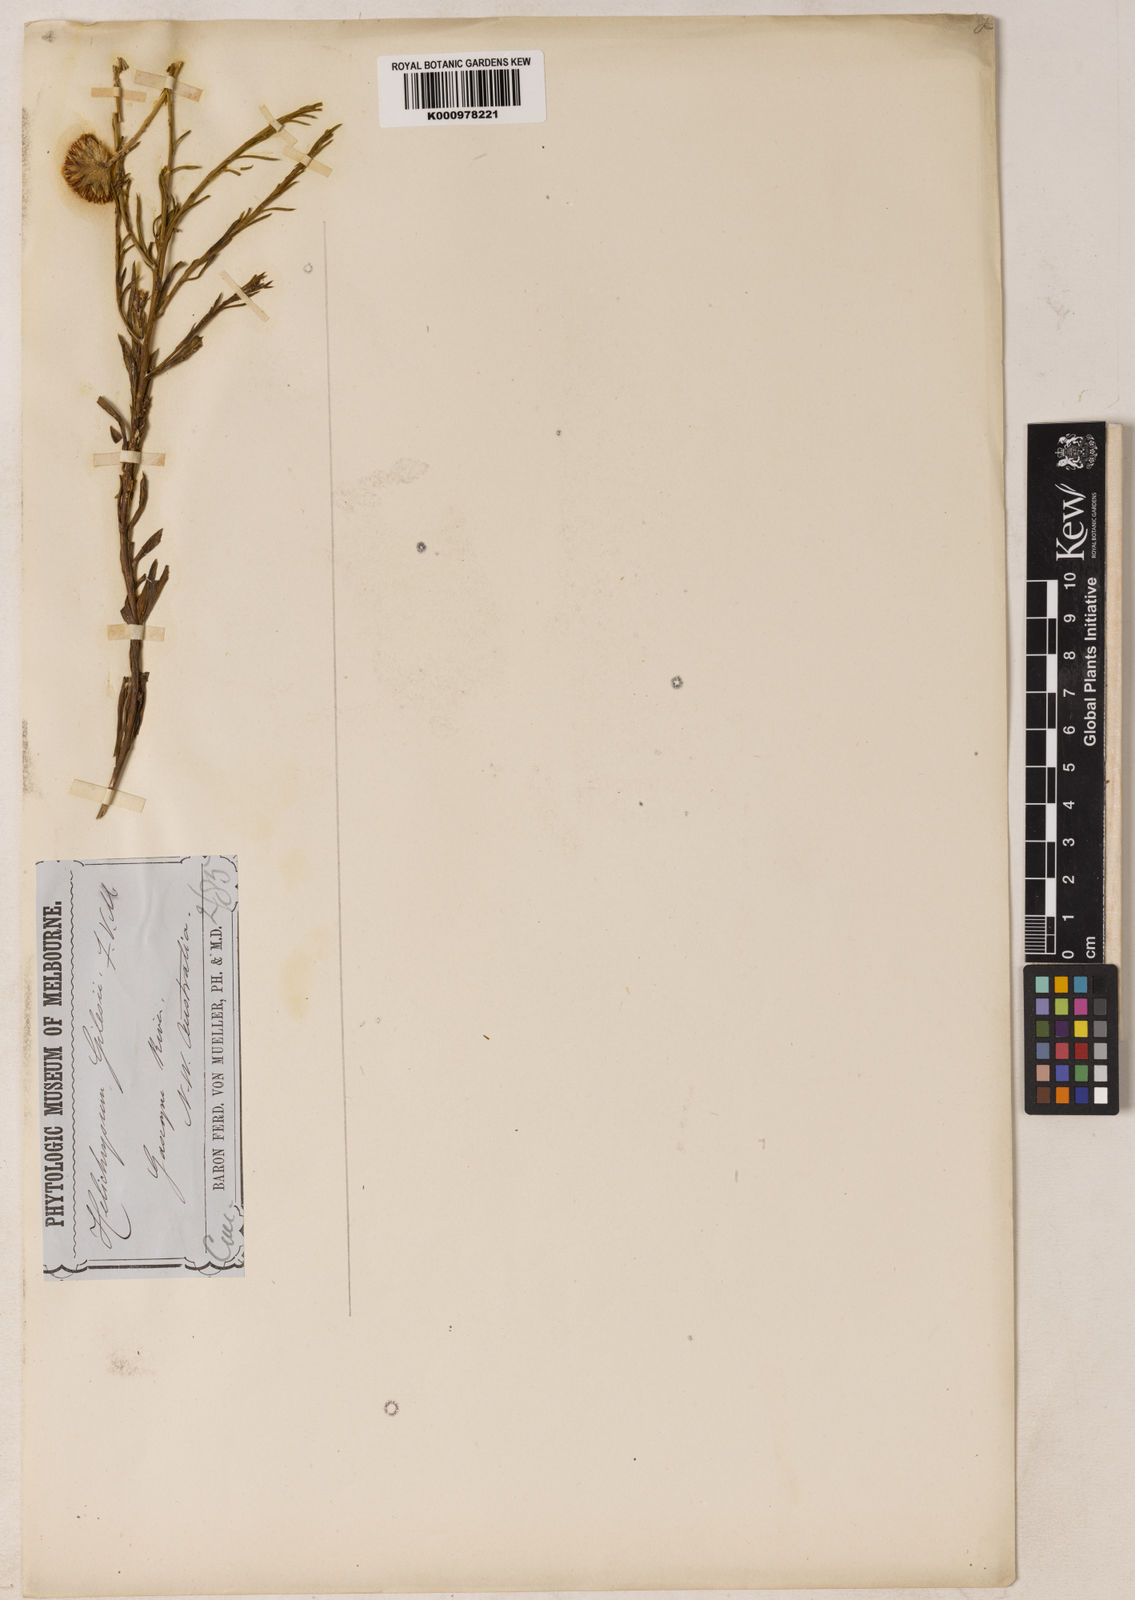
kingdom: Plantae
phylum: Tracheophyta
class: Magnoliopsida
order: Asterales
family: Asteraceae
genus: Chrysocephalum
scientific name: Chrysocephalum gilesii
